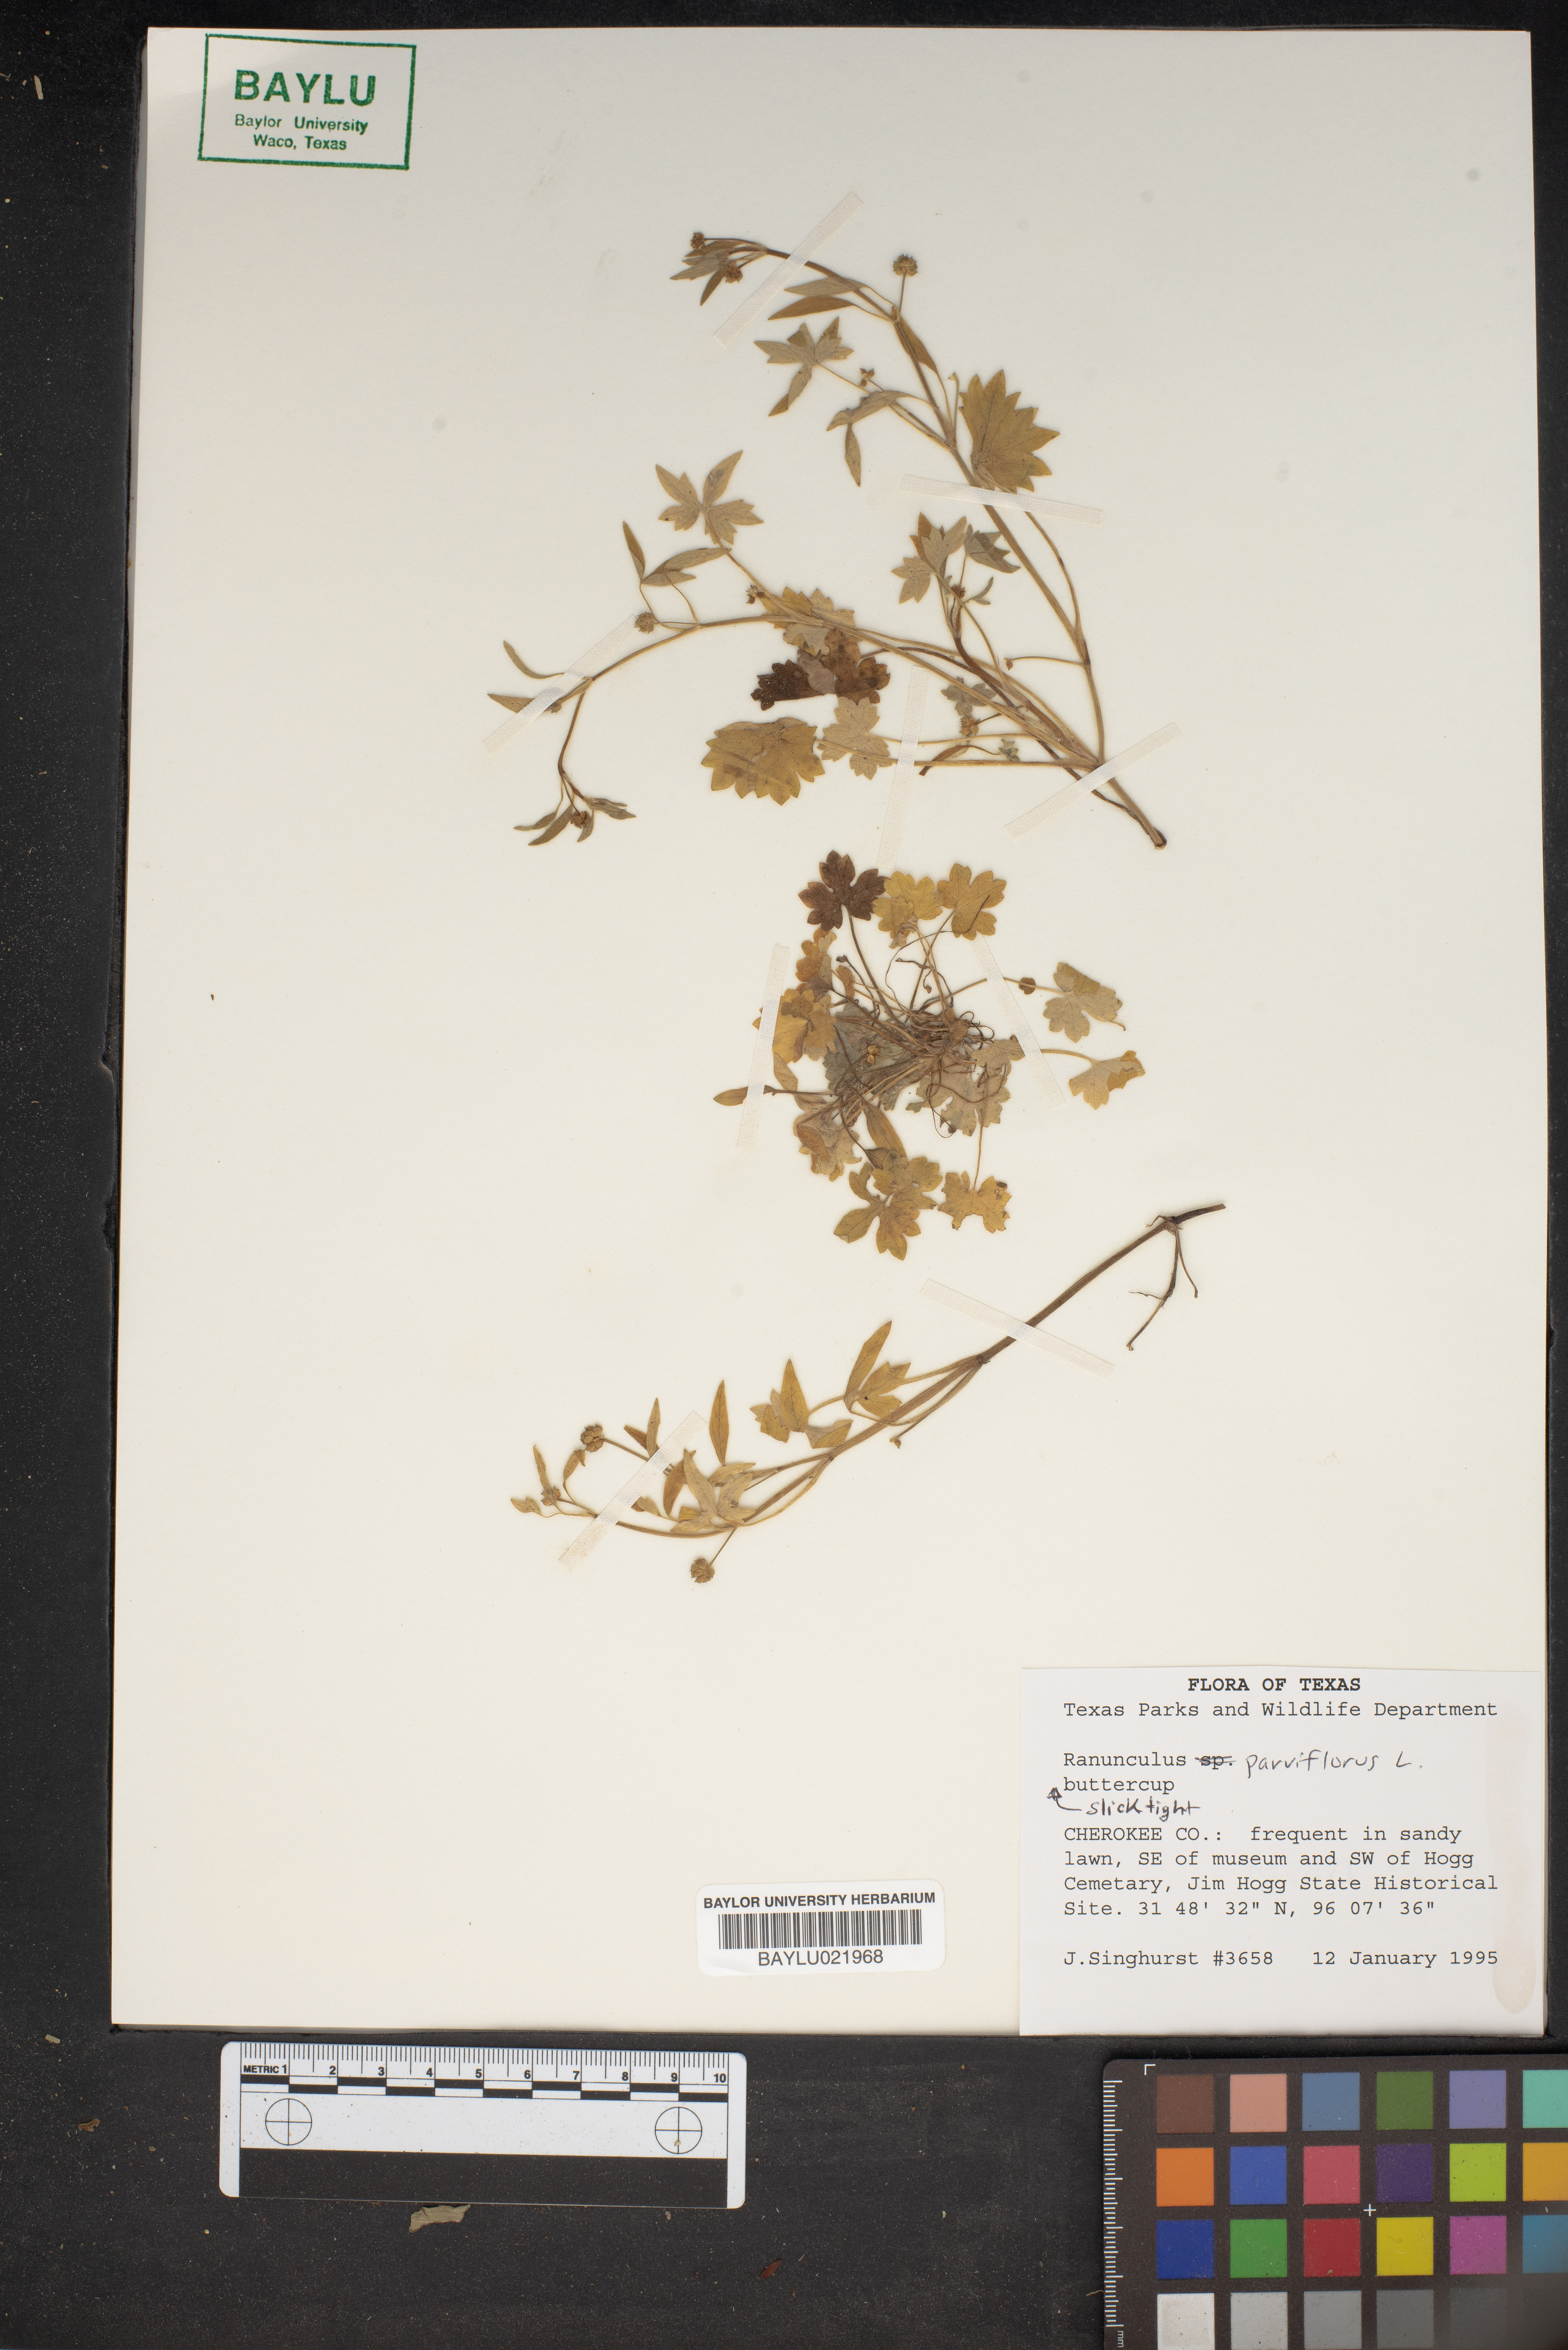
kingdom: Plantae
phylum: Tracheophyta
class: Magnoliopsida
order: Ranunculales
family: Ranunculaceae
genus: Ranunculus
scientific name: Ranunculus parviflorus
